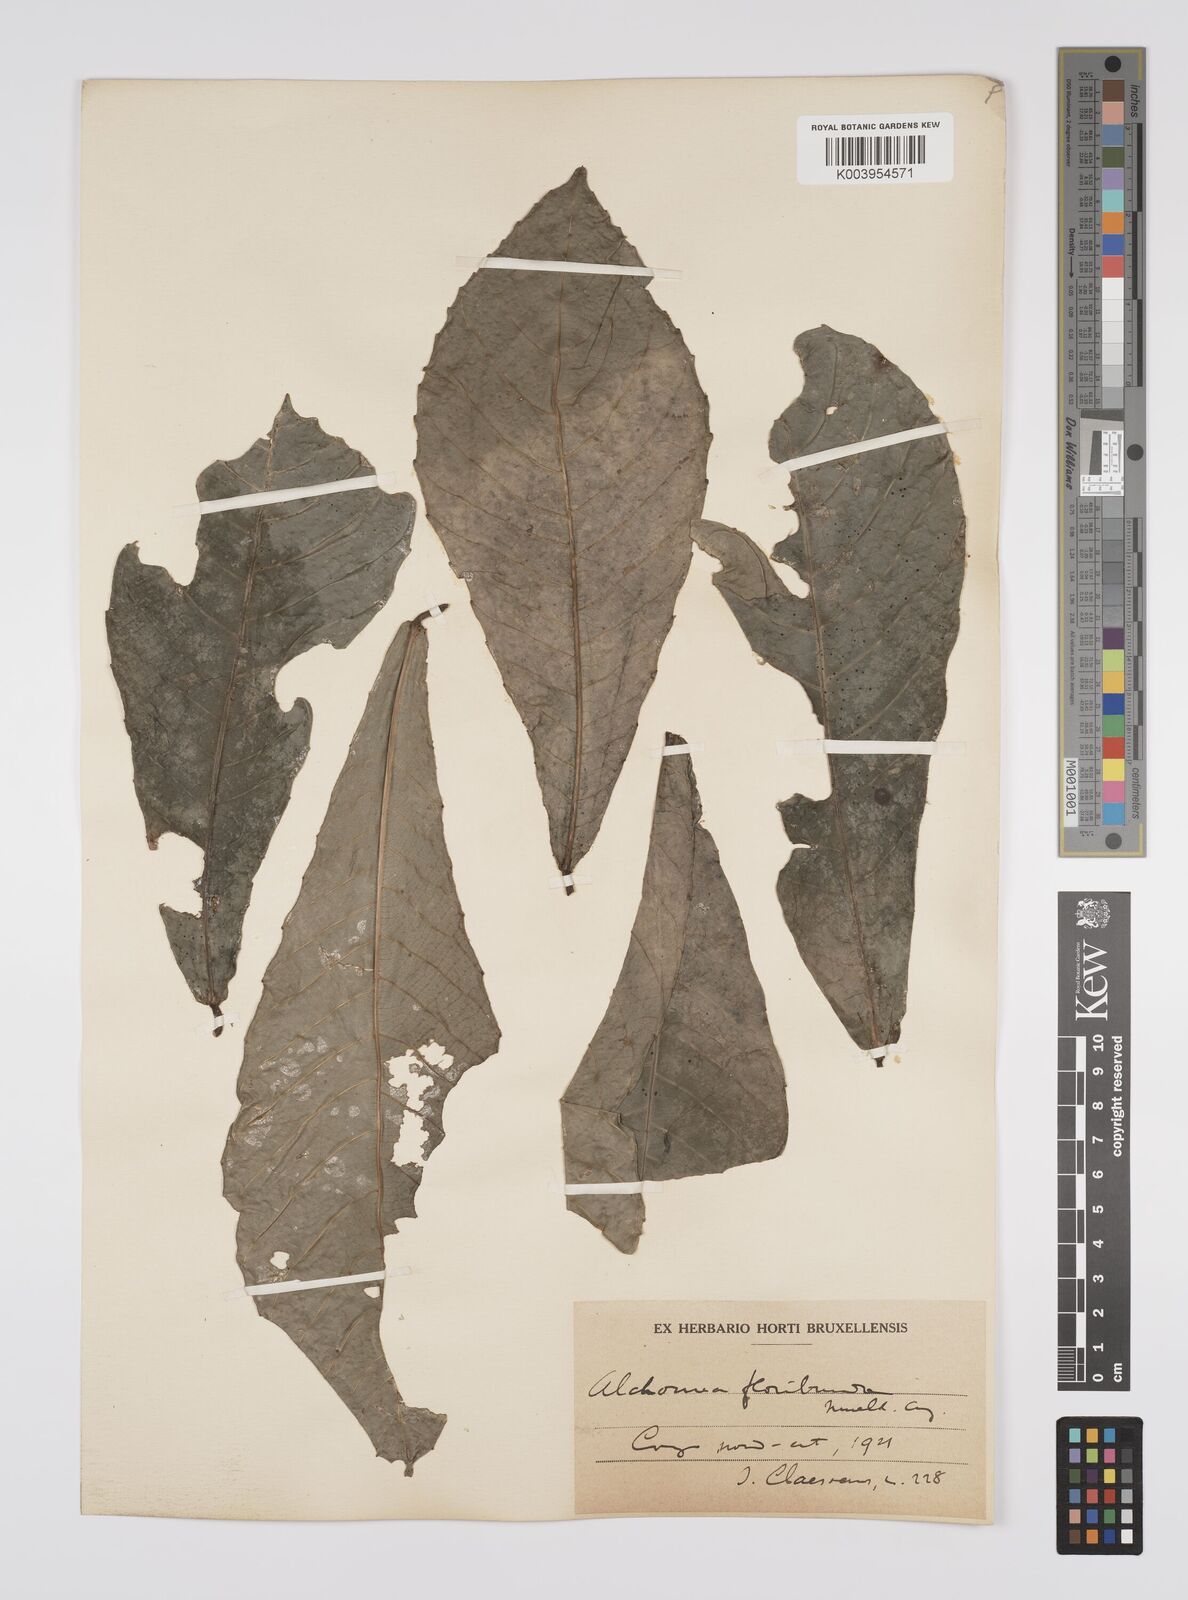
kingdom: Plantae
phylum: Tracheophyta
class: Magnoliopsida
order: Malpighiales
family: Euphorbiaceae
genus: Alchornea
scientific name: Alchornea floribunda
